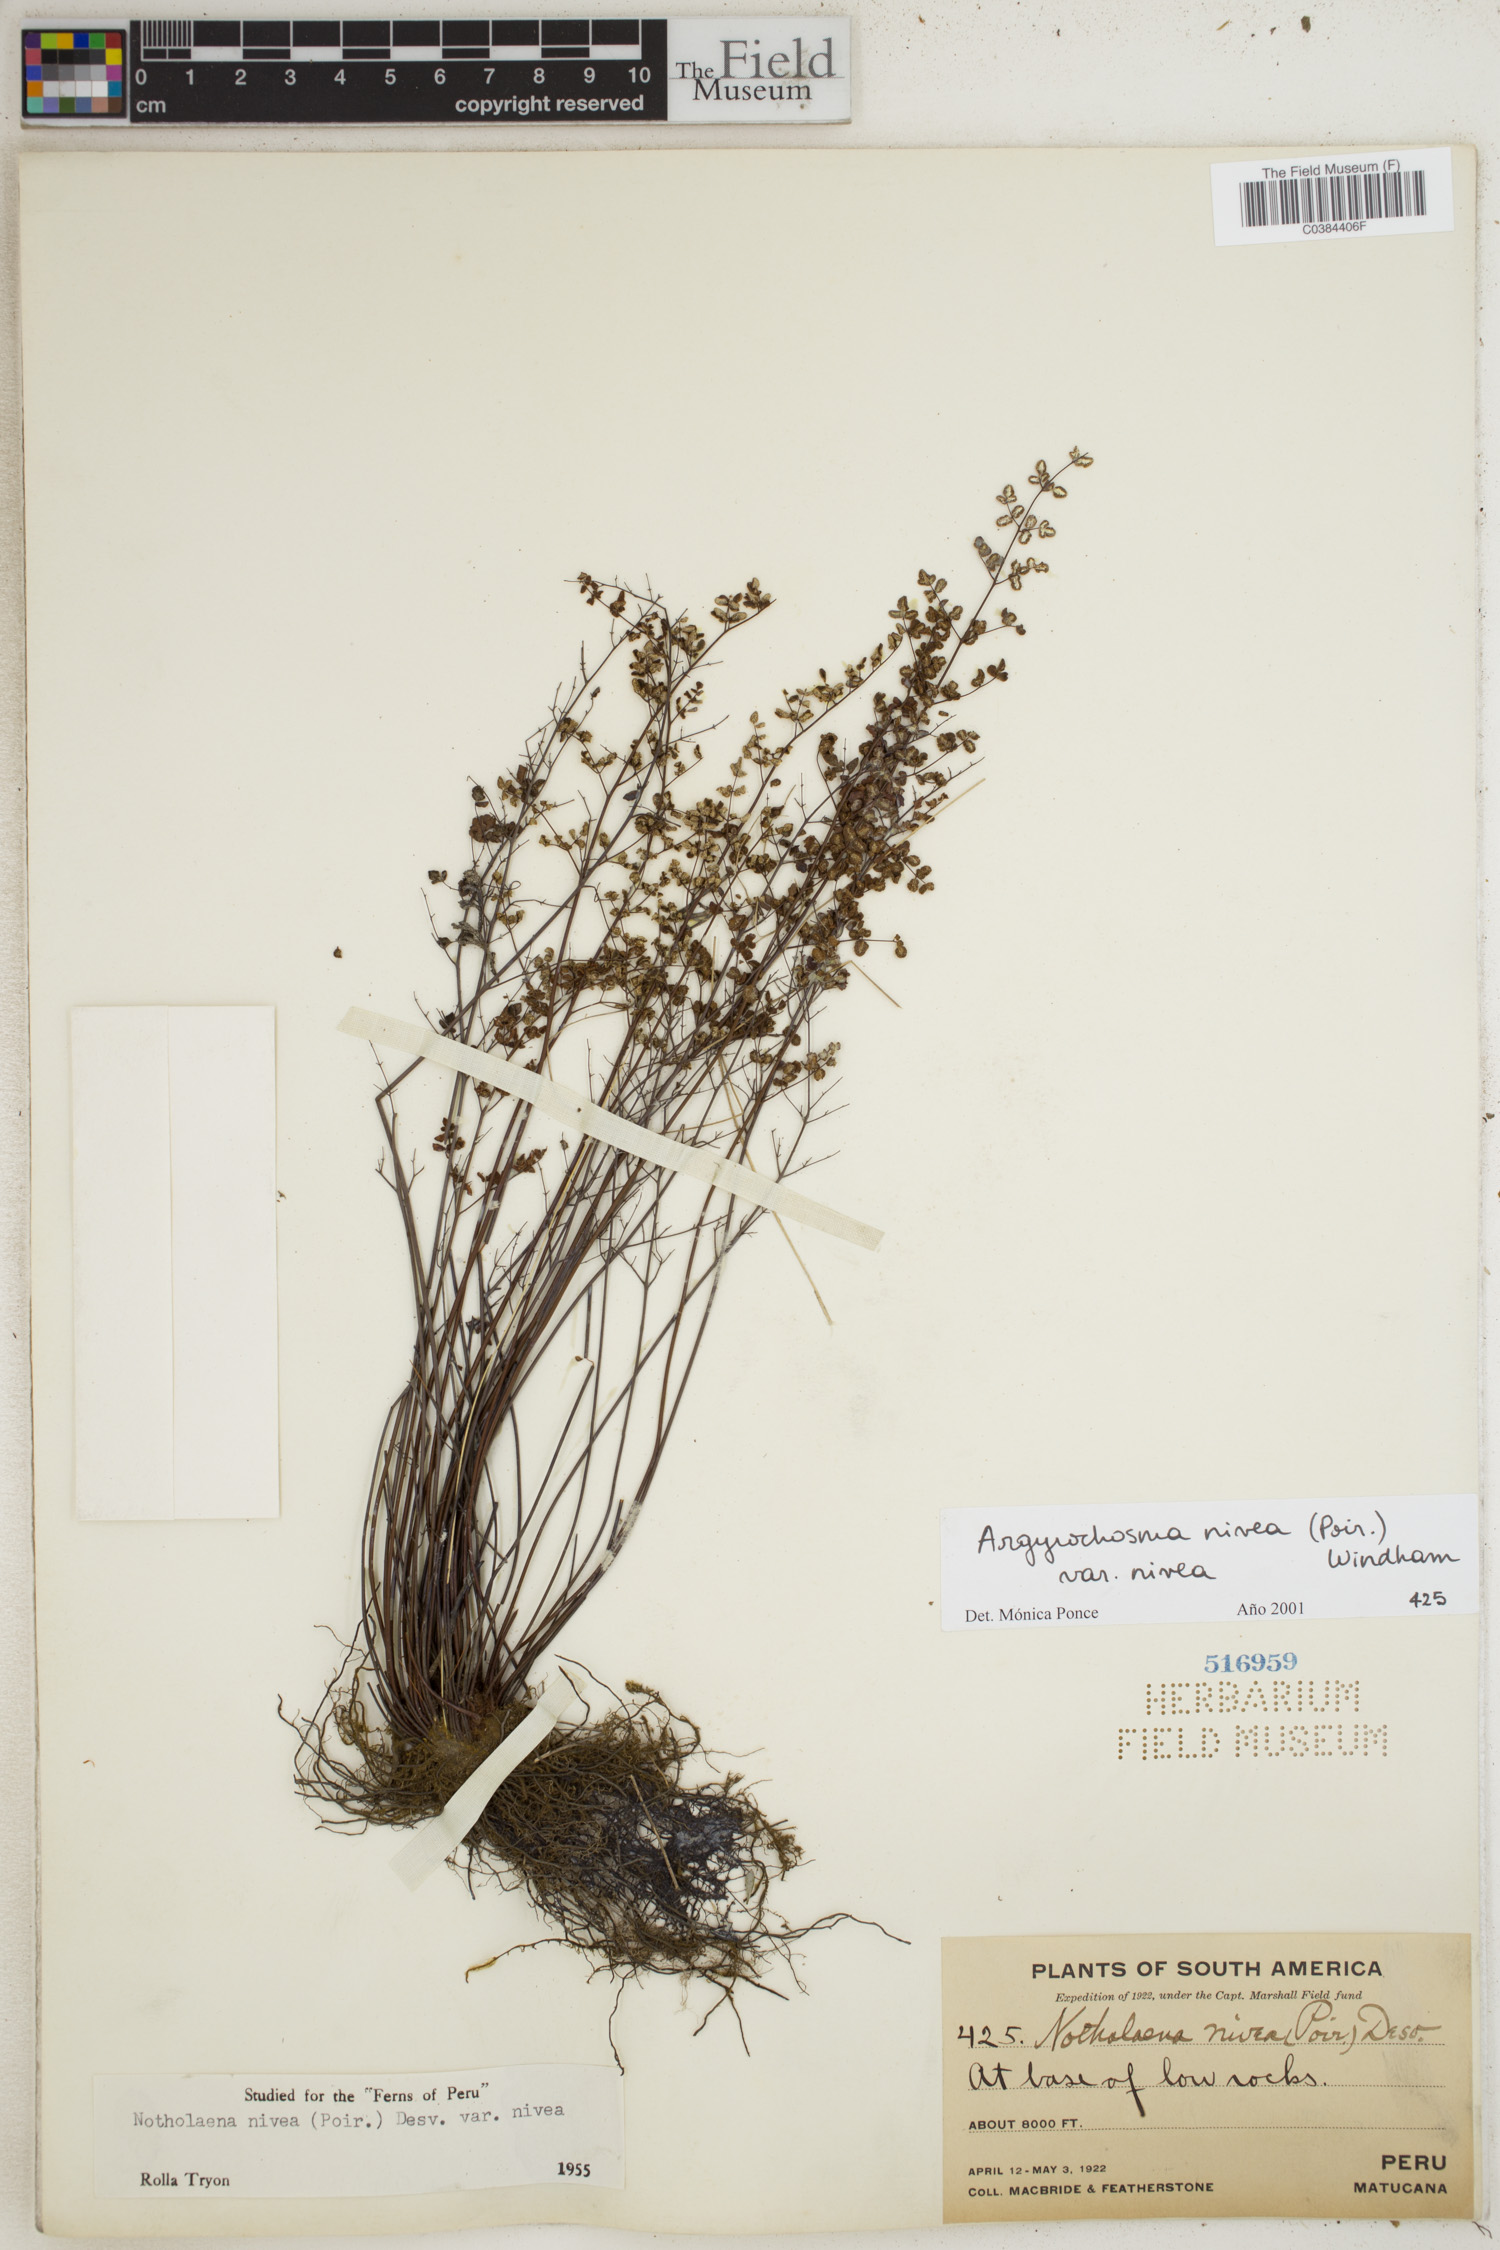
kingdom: Plantae
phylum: Tracheophyta
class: Polypodiopsida
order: Polypodiales
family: Pteridaceae
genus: Argyrochosma
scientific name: Argyrochosma nivea
